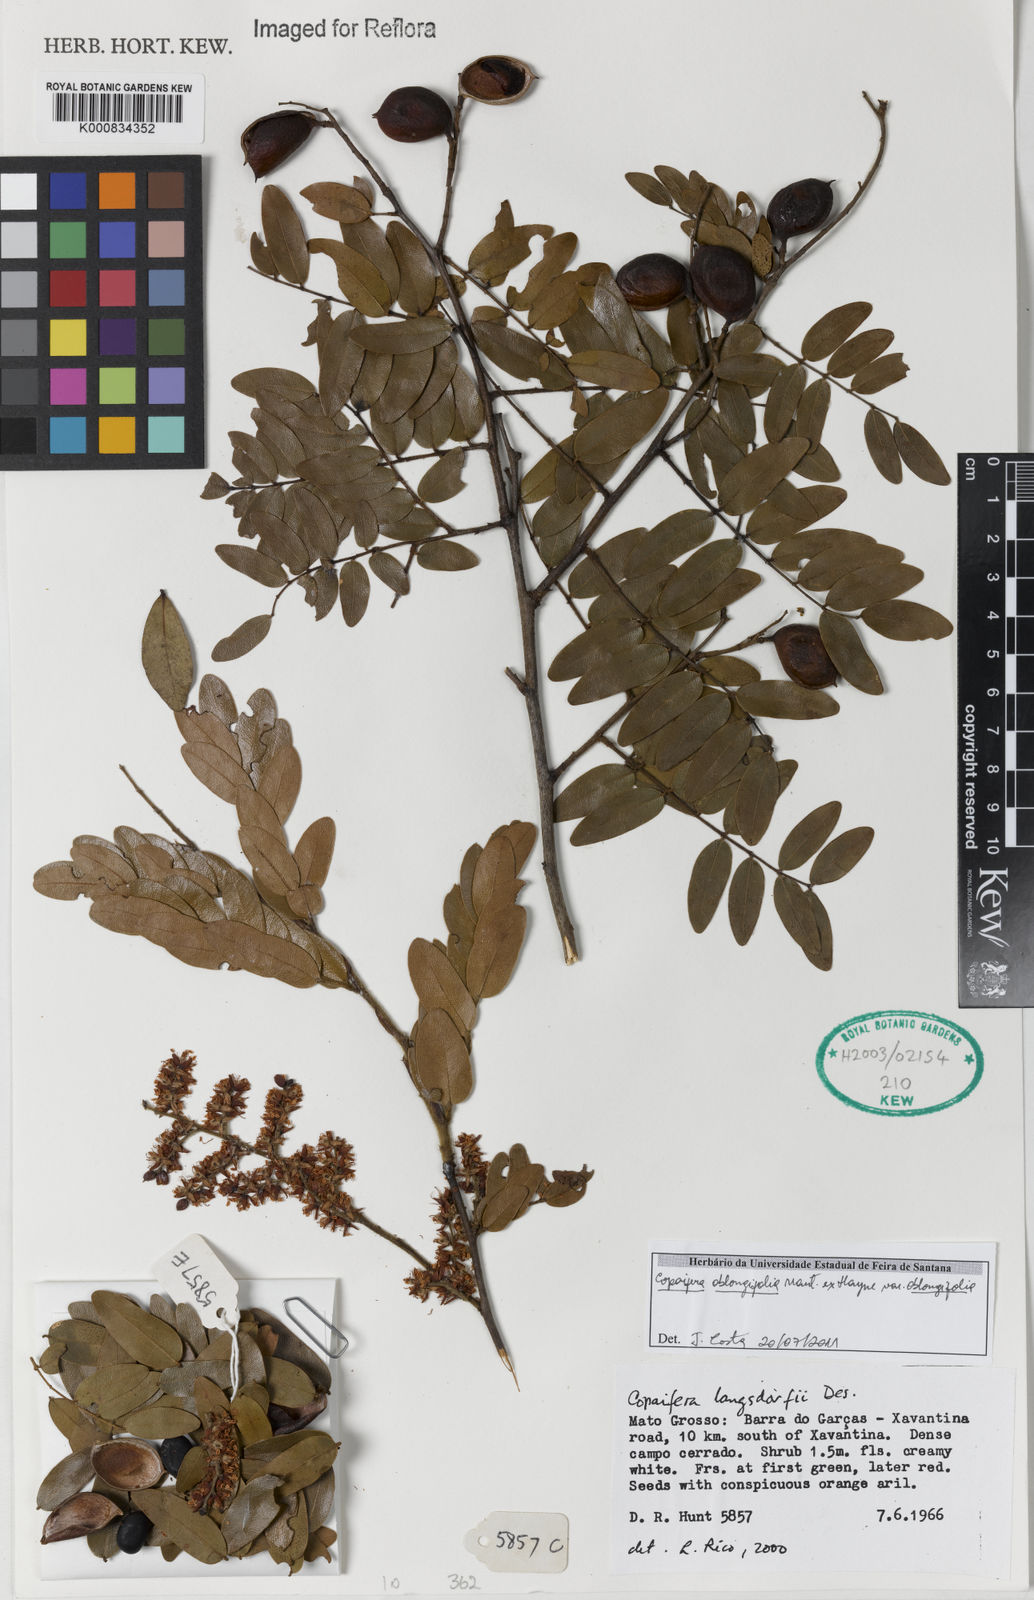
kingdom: Plantae
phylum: Tracheophyta
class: Magnoliopsida
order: Fabales
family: Fabaceae
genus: Copaifera
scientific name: Copaifera
